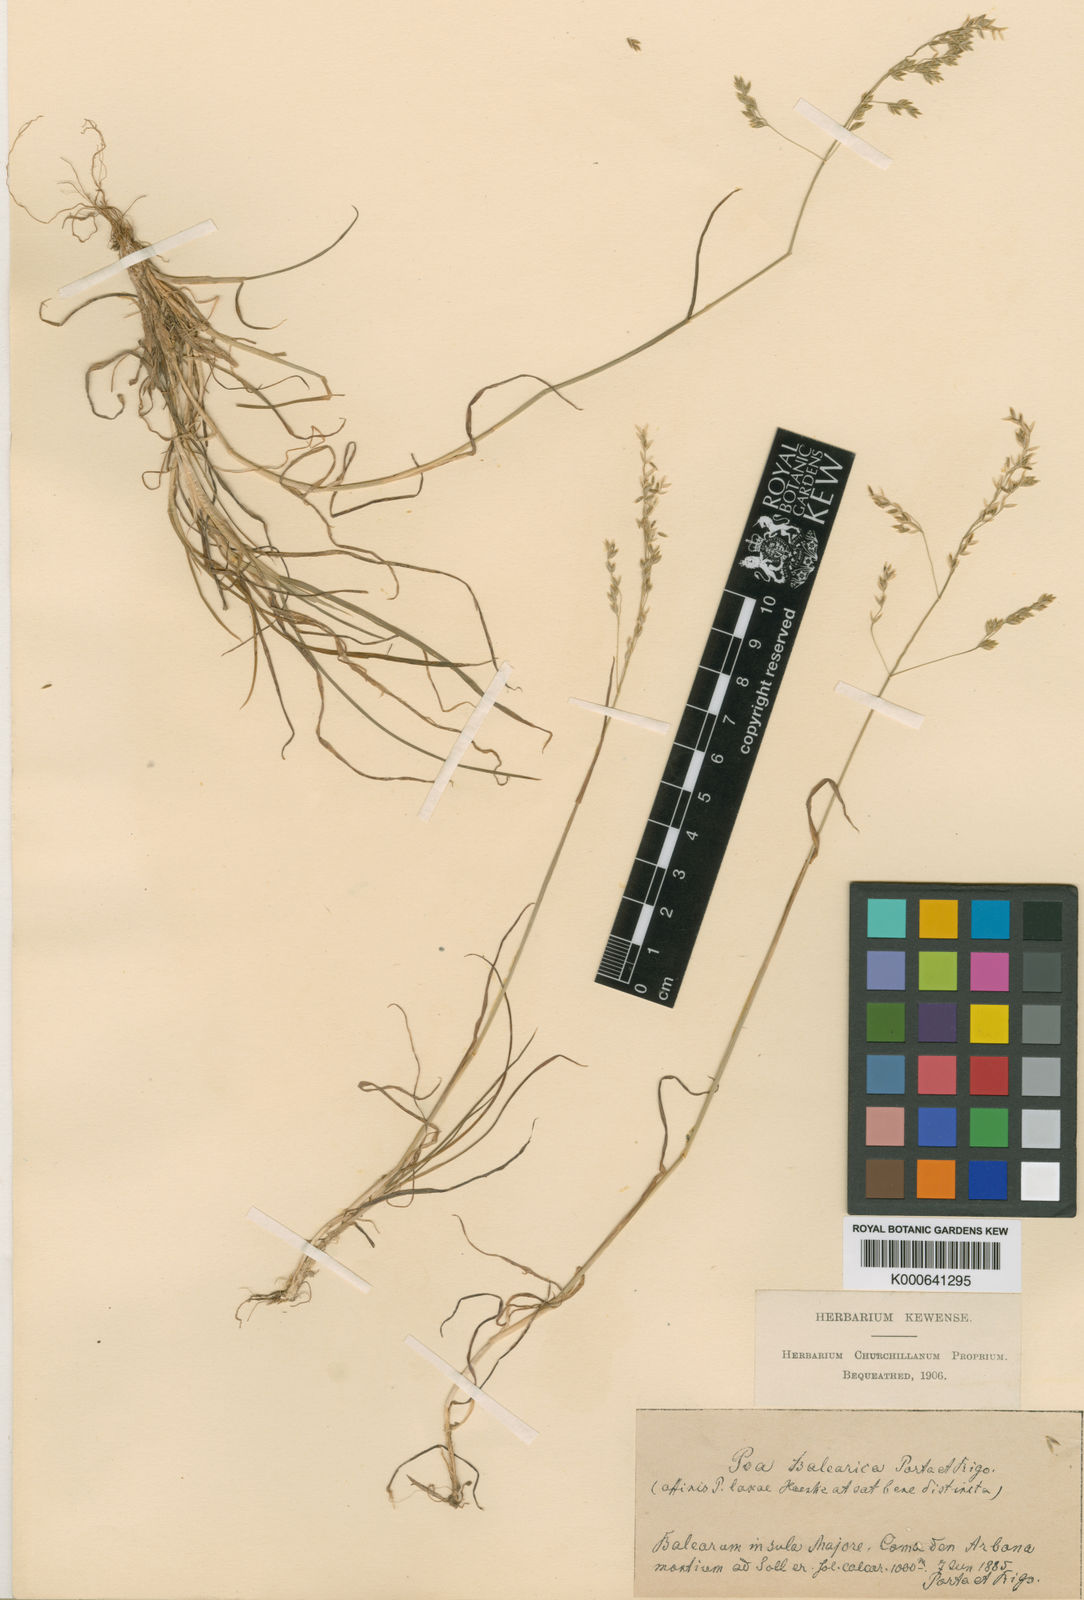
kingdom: Plantae
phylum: Tracheophyta
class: Liliopsida
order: Poales
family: Poaceae
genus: Poa
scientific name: Poa flaccidula
